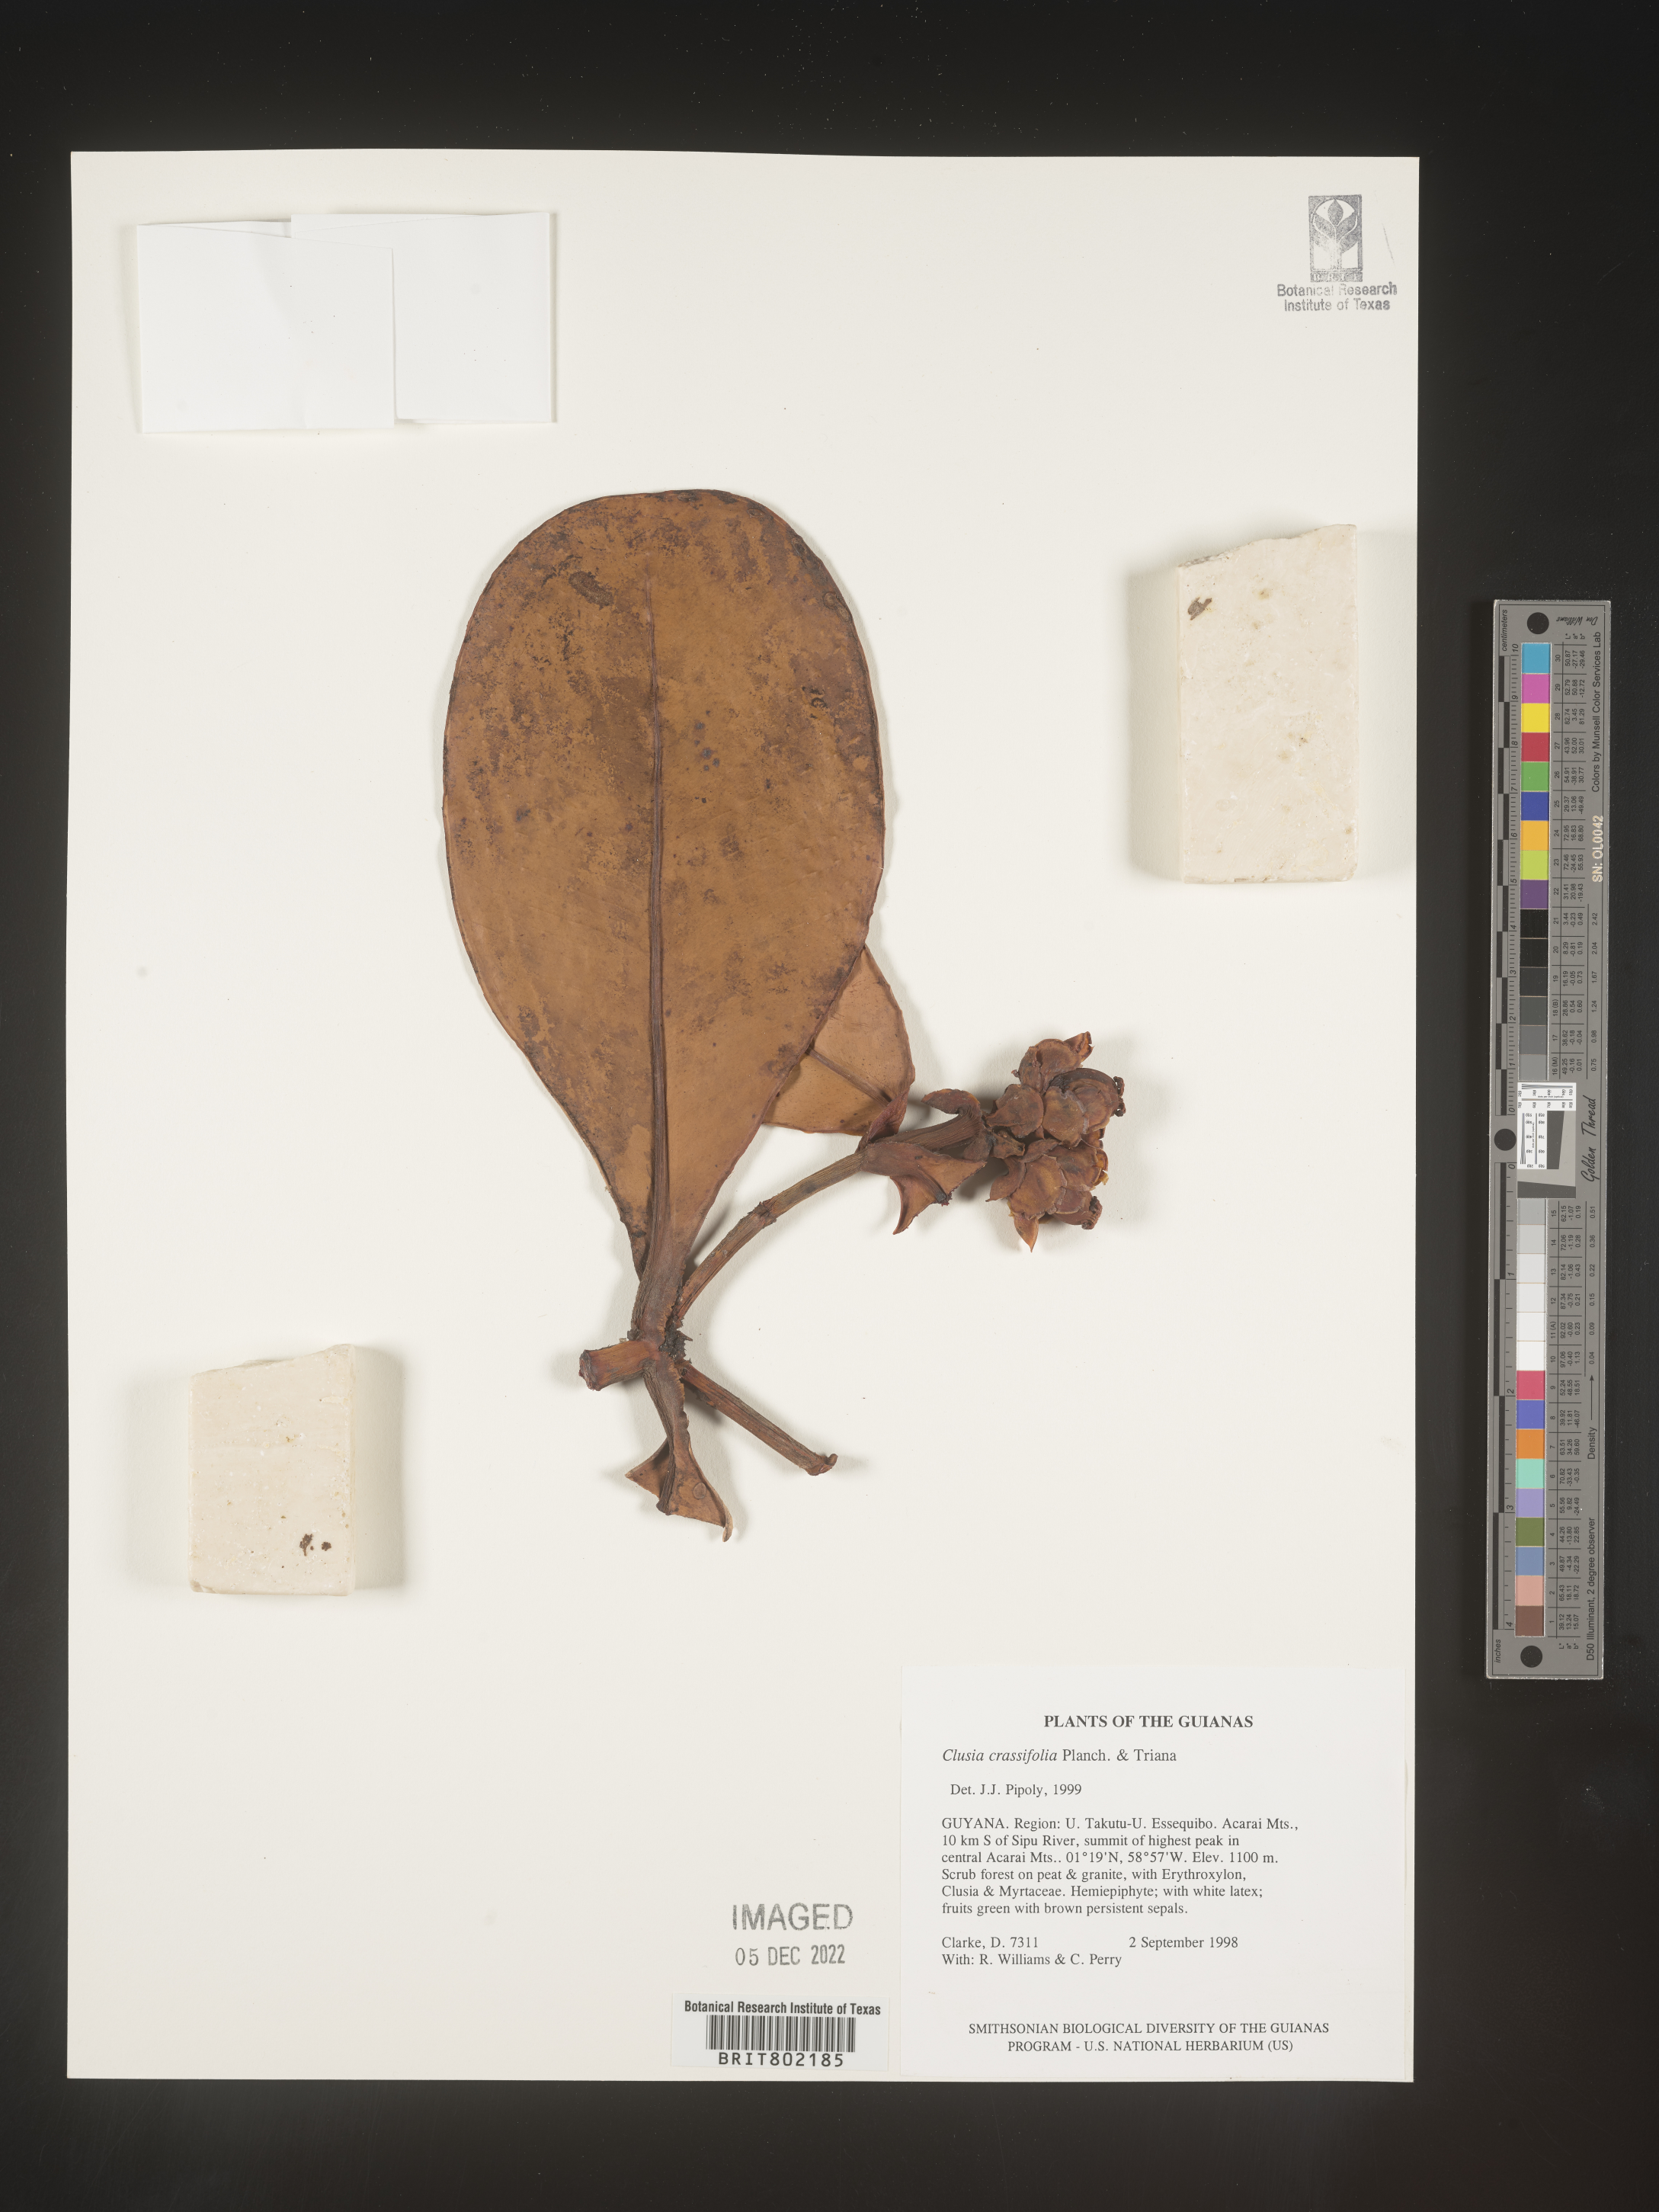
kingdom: Plantae
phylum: Tracheophyta
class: Magnoliopsida
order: Malpighiales
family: Clusiaceae
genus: Clusia
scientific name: Clusia crassifolia
